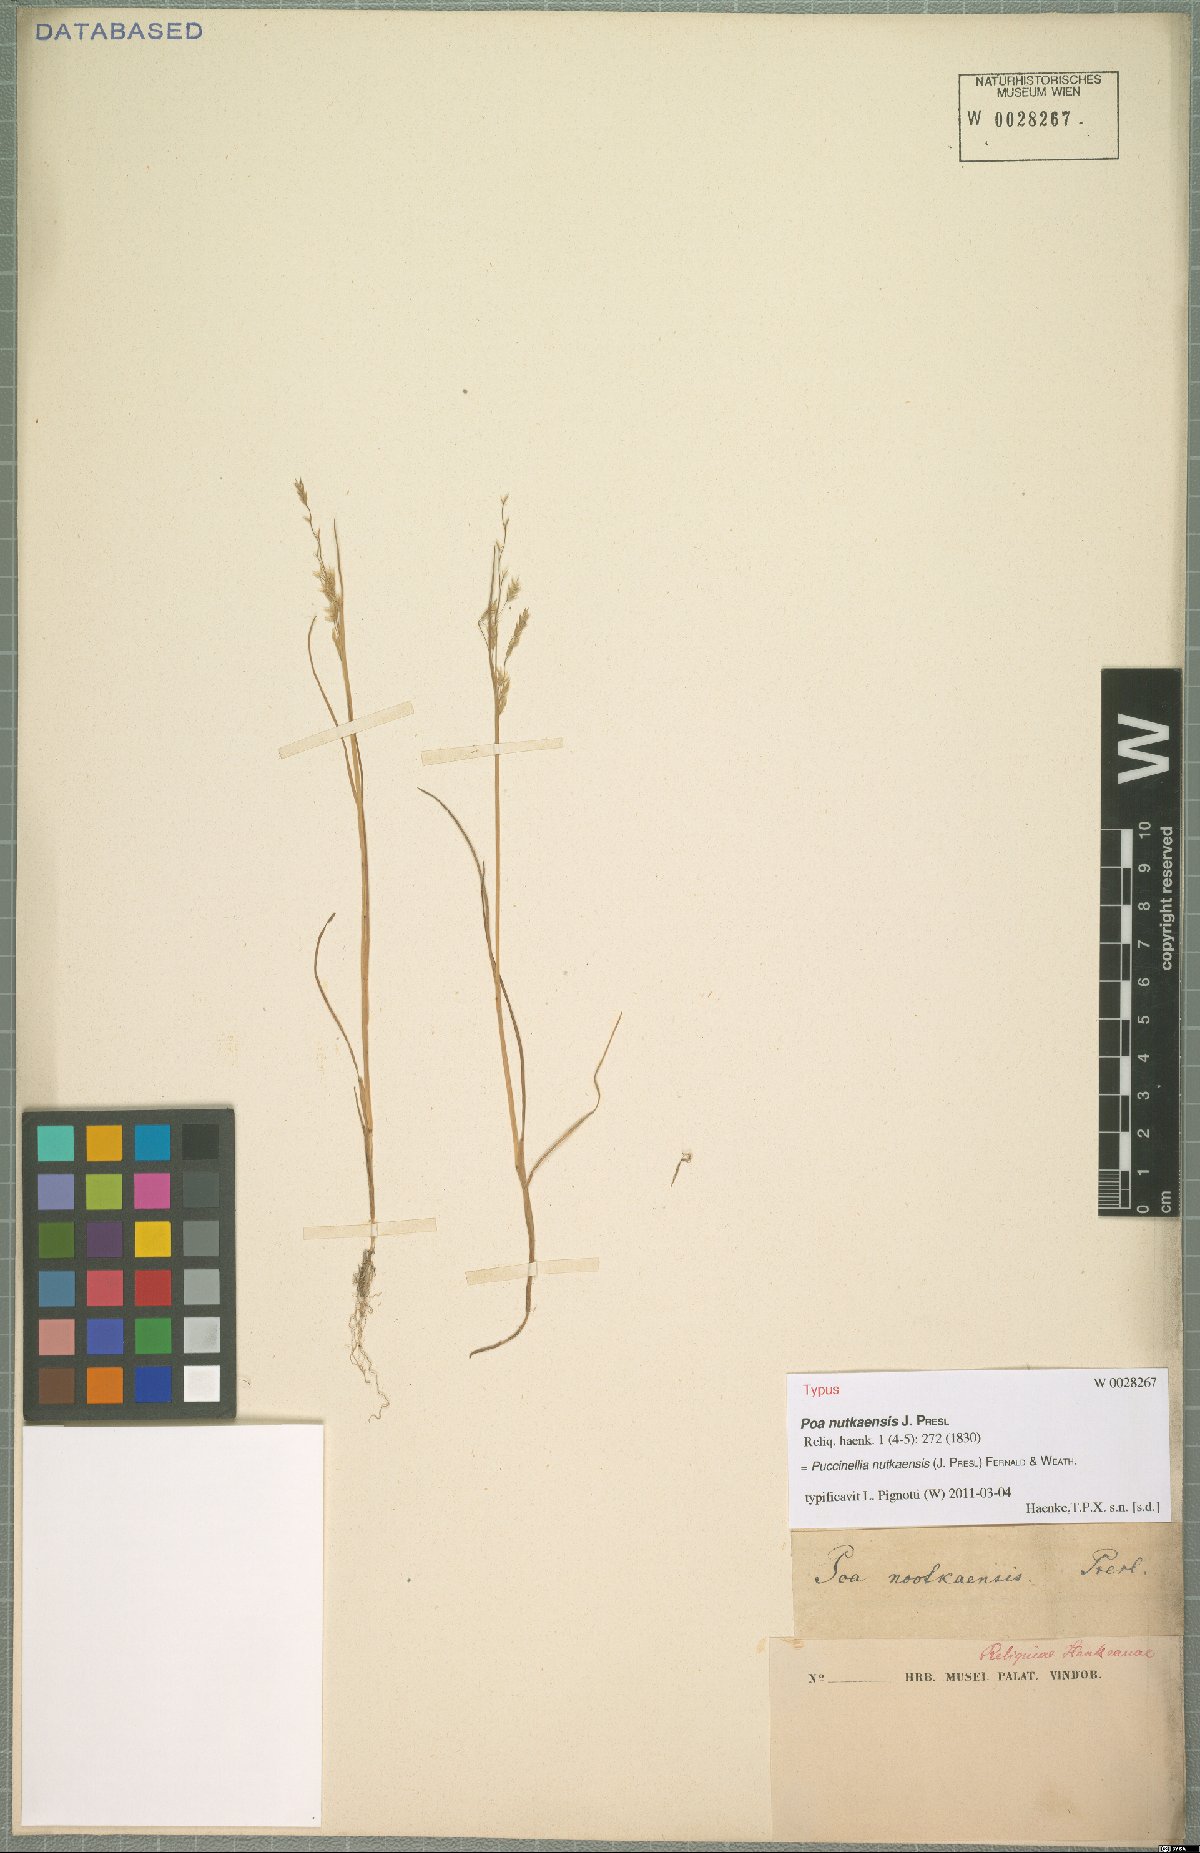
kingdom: Plantae
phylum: Tracheophyta
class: Liliopsida
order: Poales
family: Poaceae
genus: Puccinellia
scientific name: Puccinellia nutkaensis
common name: Nootka alkaligrass
